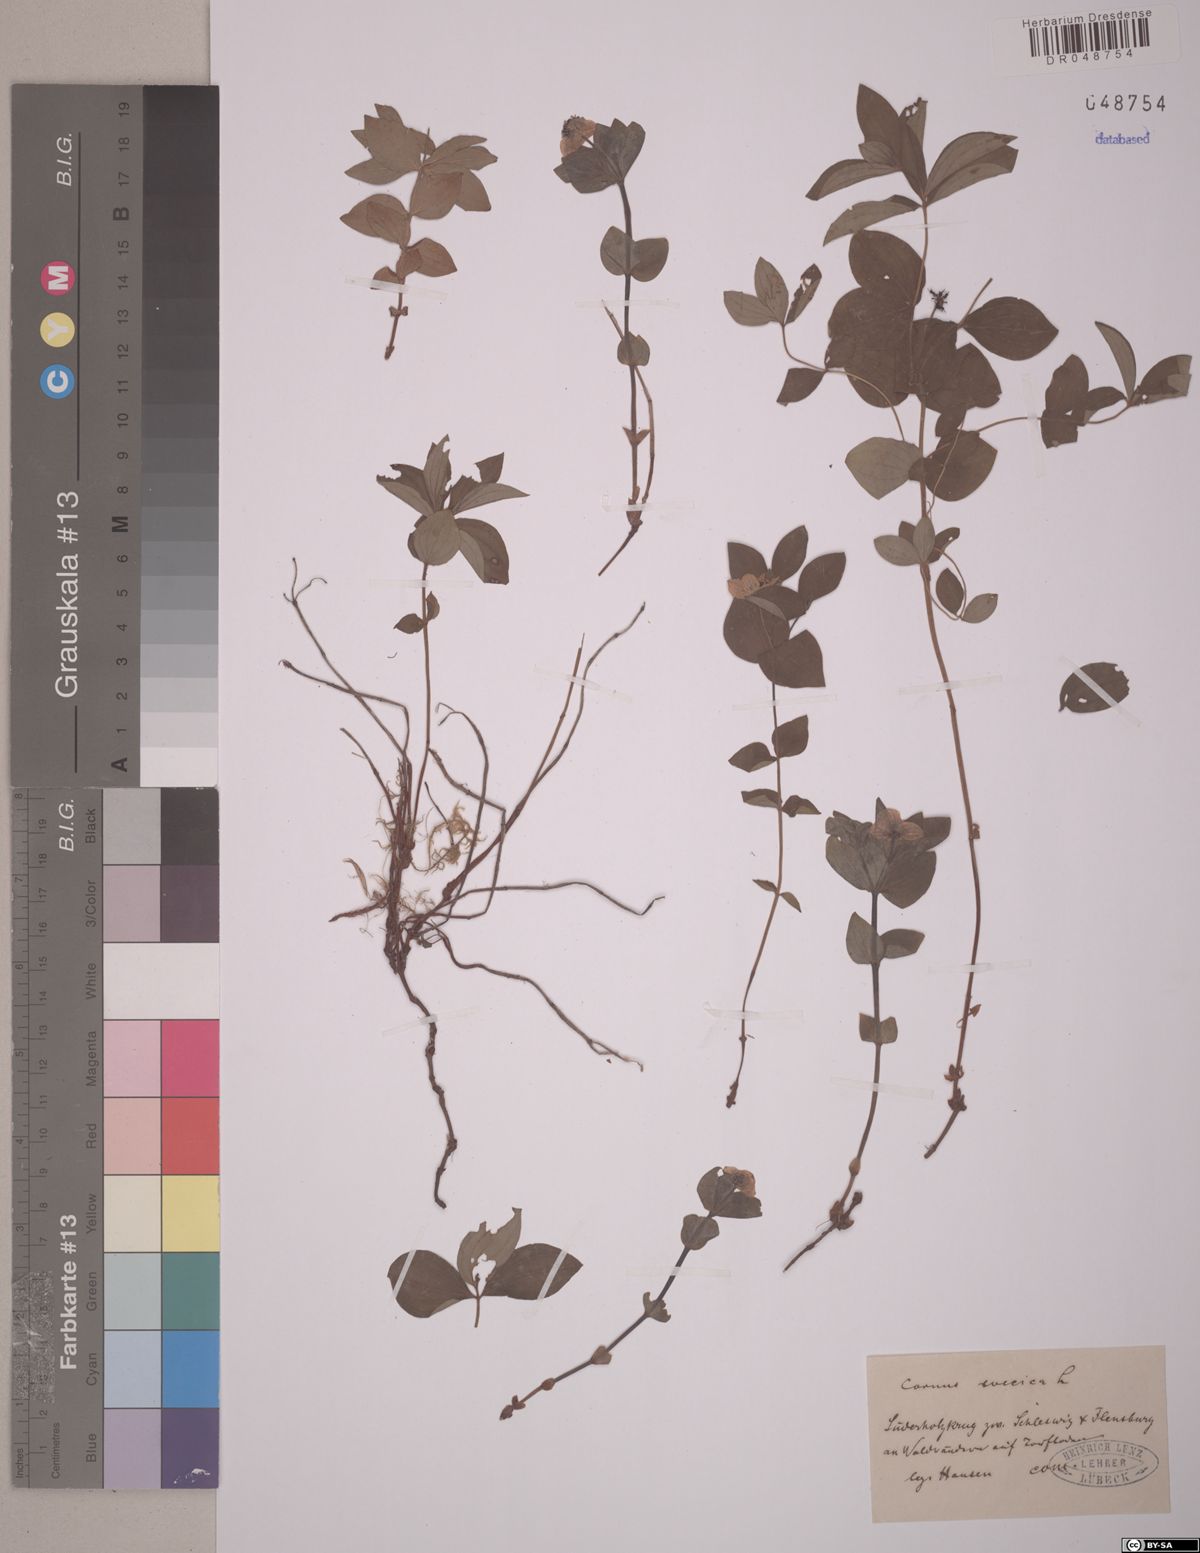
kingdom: Plantae
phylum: Tracheophyta
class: Magnoliopsida
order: Cornales
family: Cornaceae
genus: Cornus
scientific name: Cornus suecica
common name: Dwarf cornel
